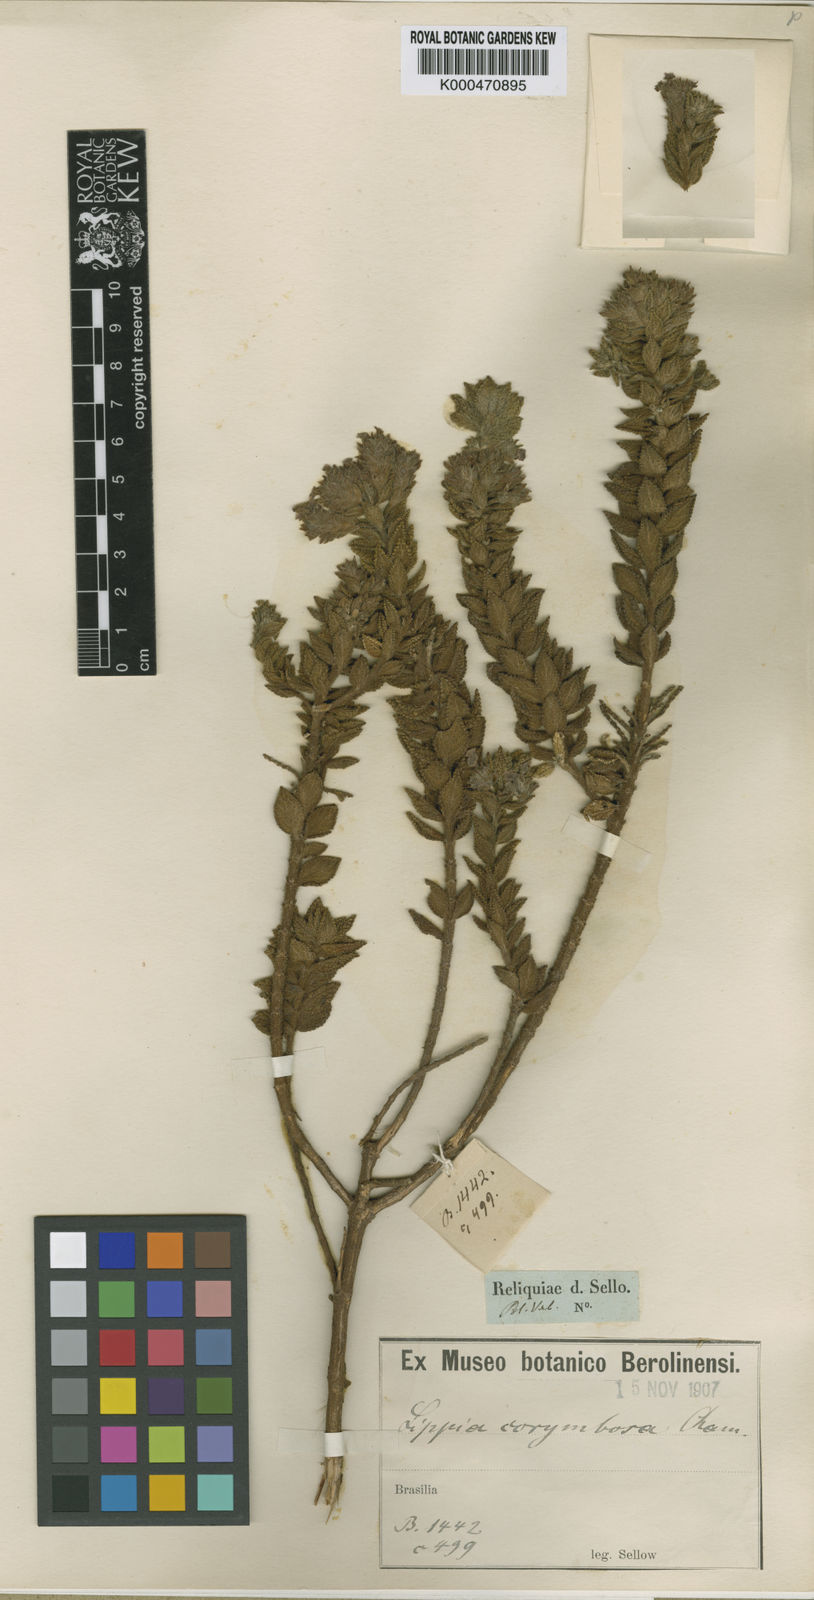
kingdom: Plantae
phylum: Tracheophyta
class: Magnoliopsida
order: Lamiales
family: Verbenaceae
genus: Lippia
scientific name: Lippia corymbosa
